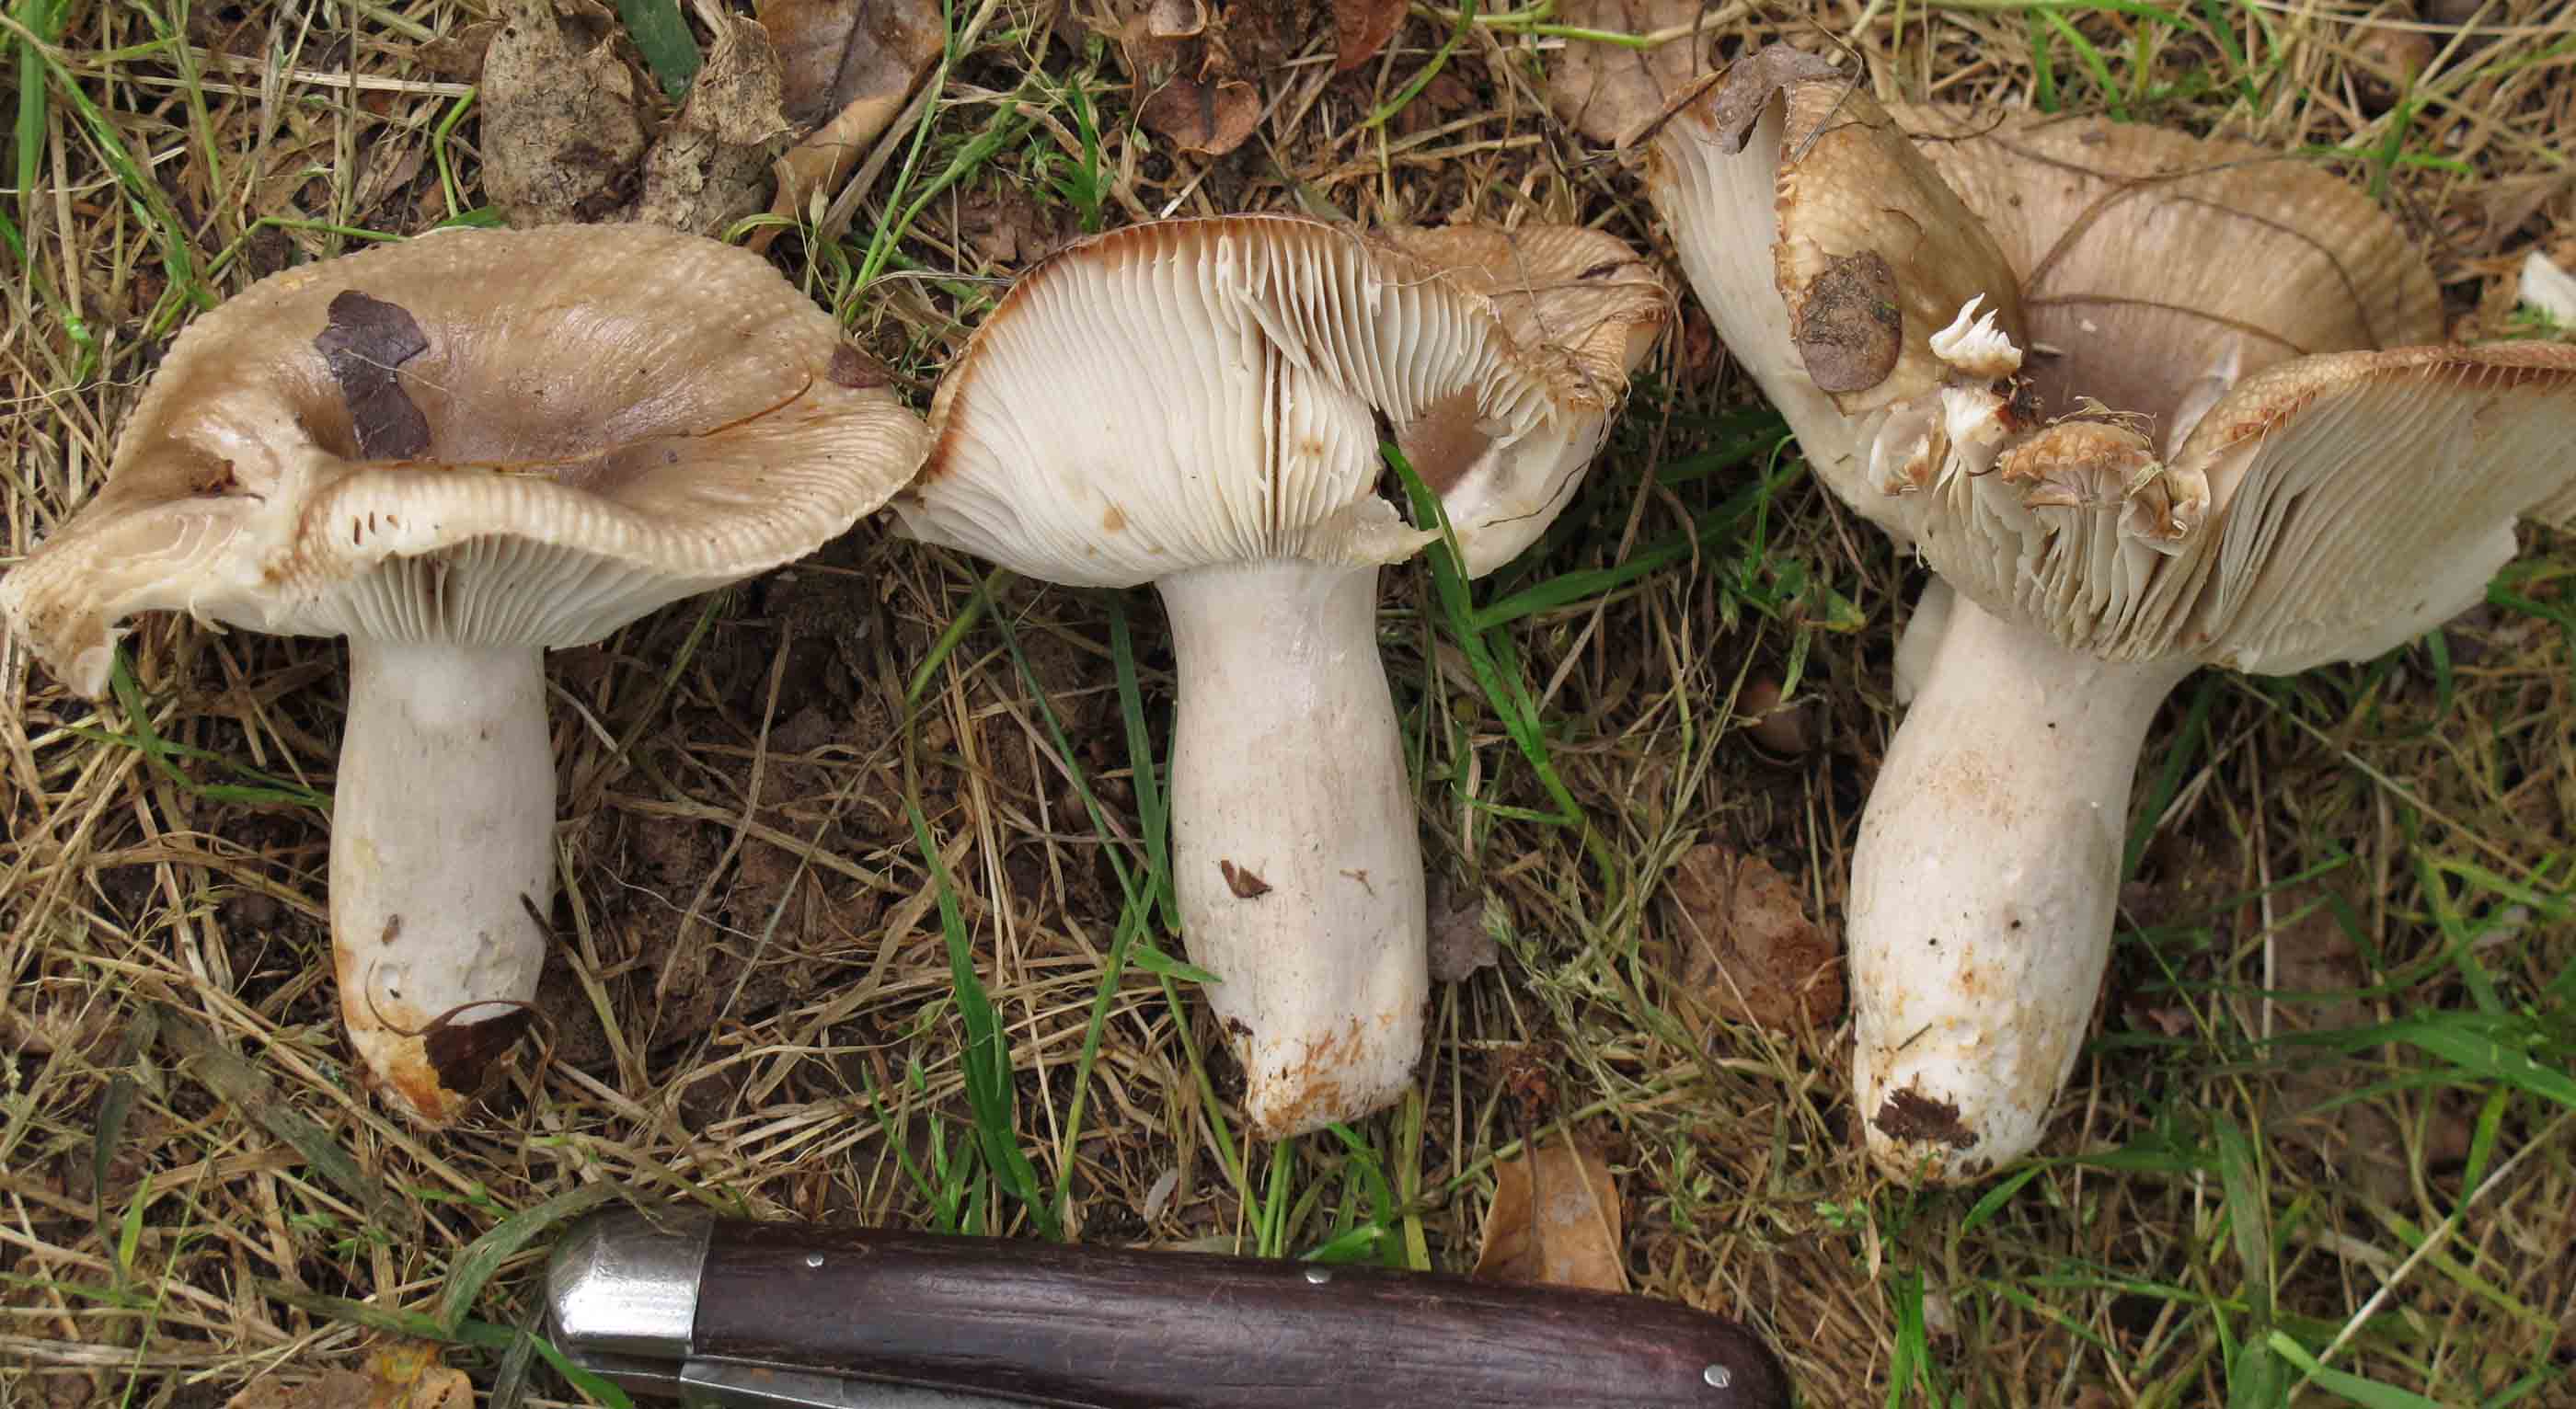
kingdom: Fungi
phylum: Basidiomycota
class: Agaricomycetes
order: Russulales
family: Russulaceae
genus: Russula
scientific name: Russula amoenolens
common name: skarp kam-skørhat
